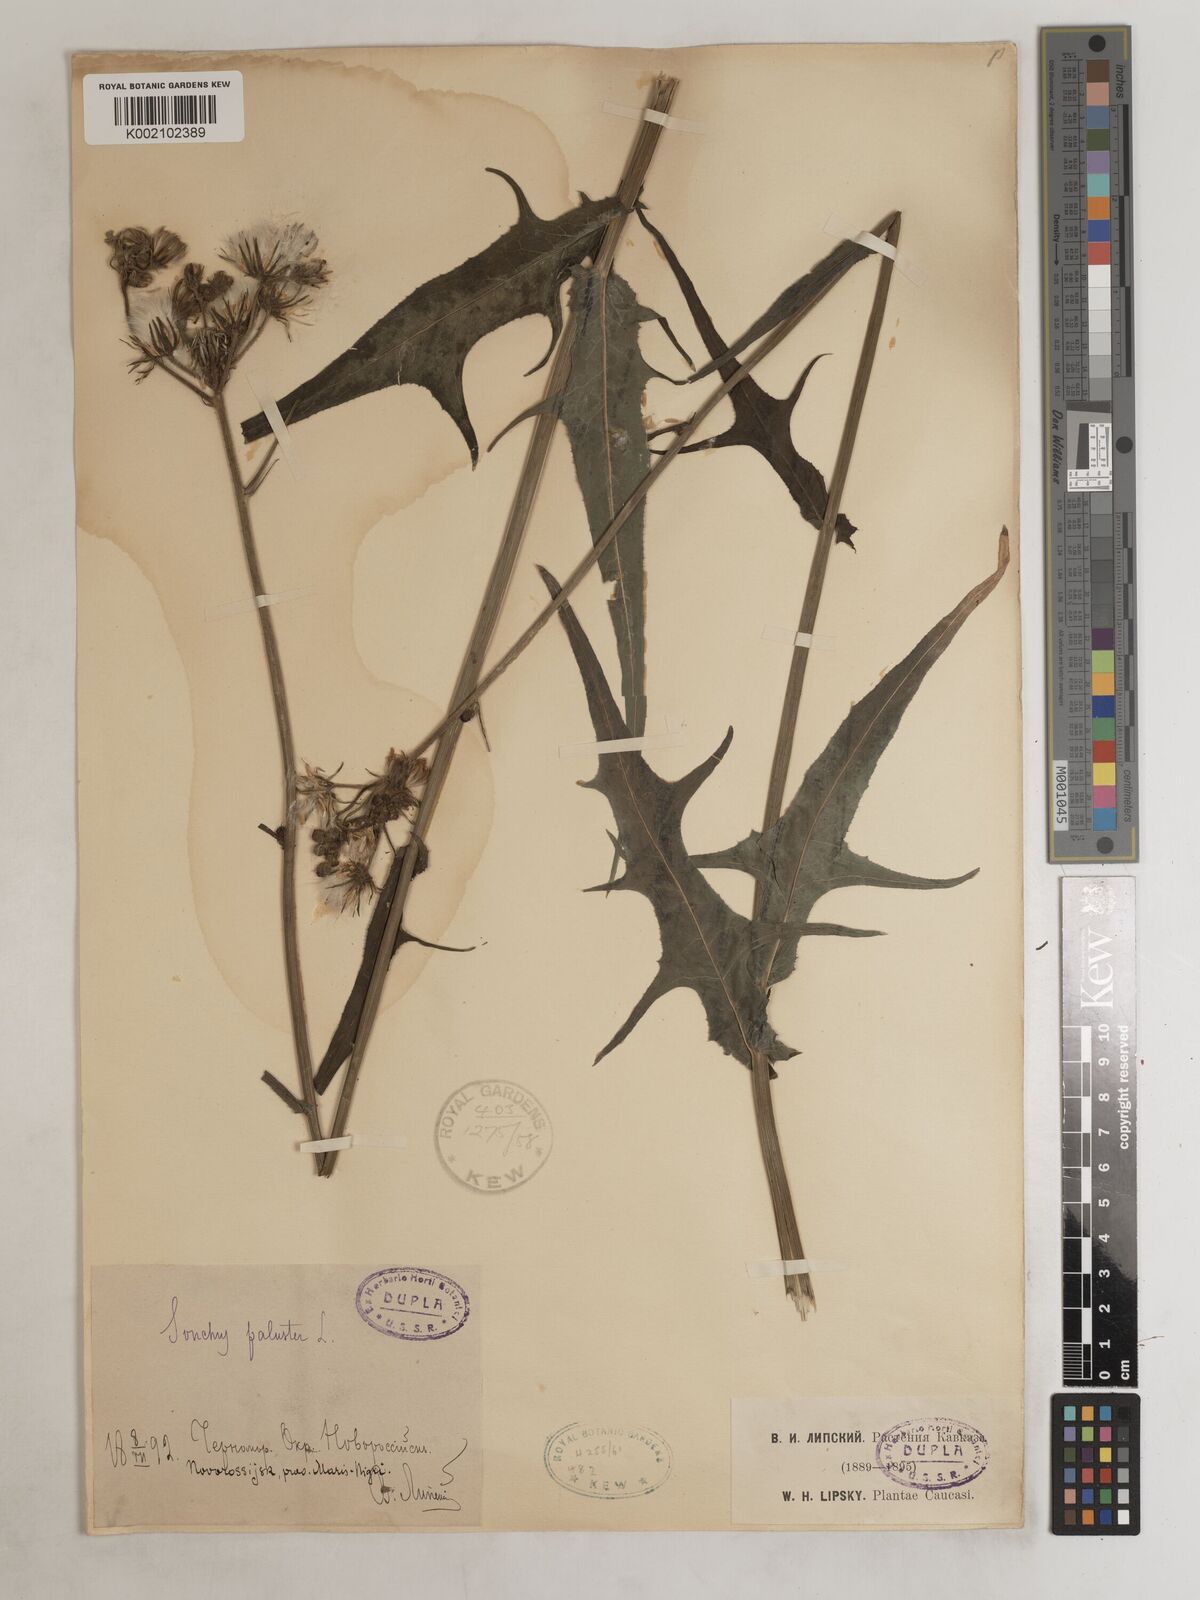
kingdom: Plantae
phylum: Tracheophyta
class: Magnoliopsida
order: Asterales
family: Asteraceae
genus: Sonchus
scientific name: Sonchus palustris
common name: Marsh sow-thistle
